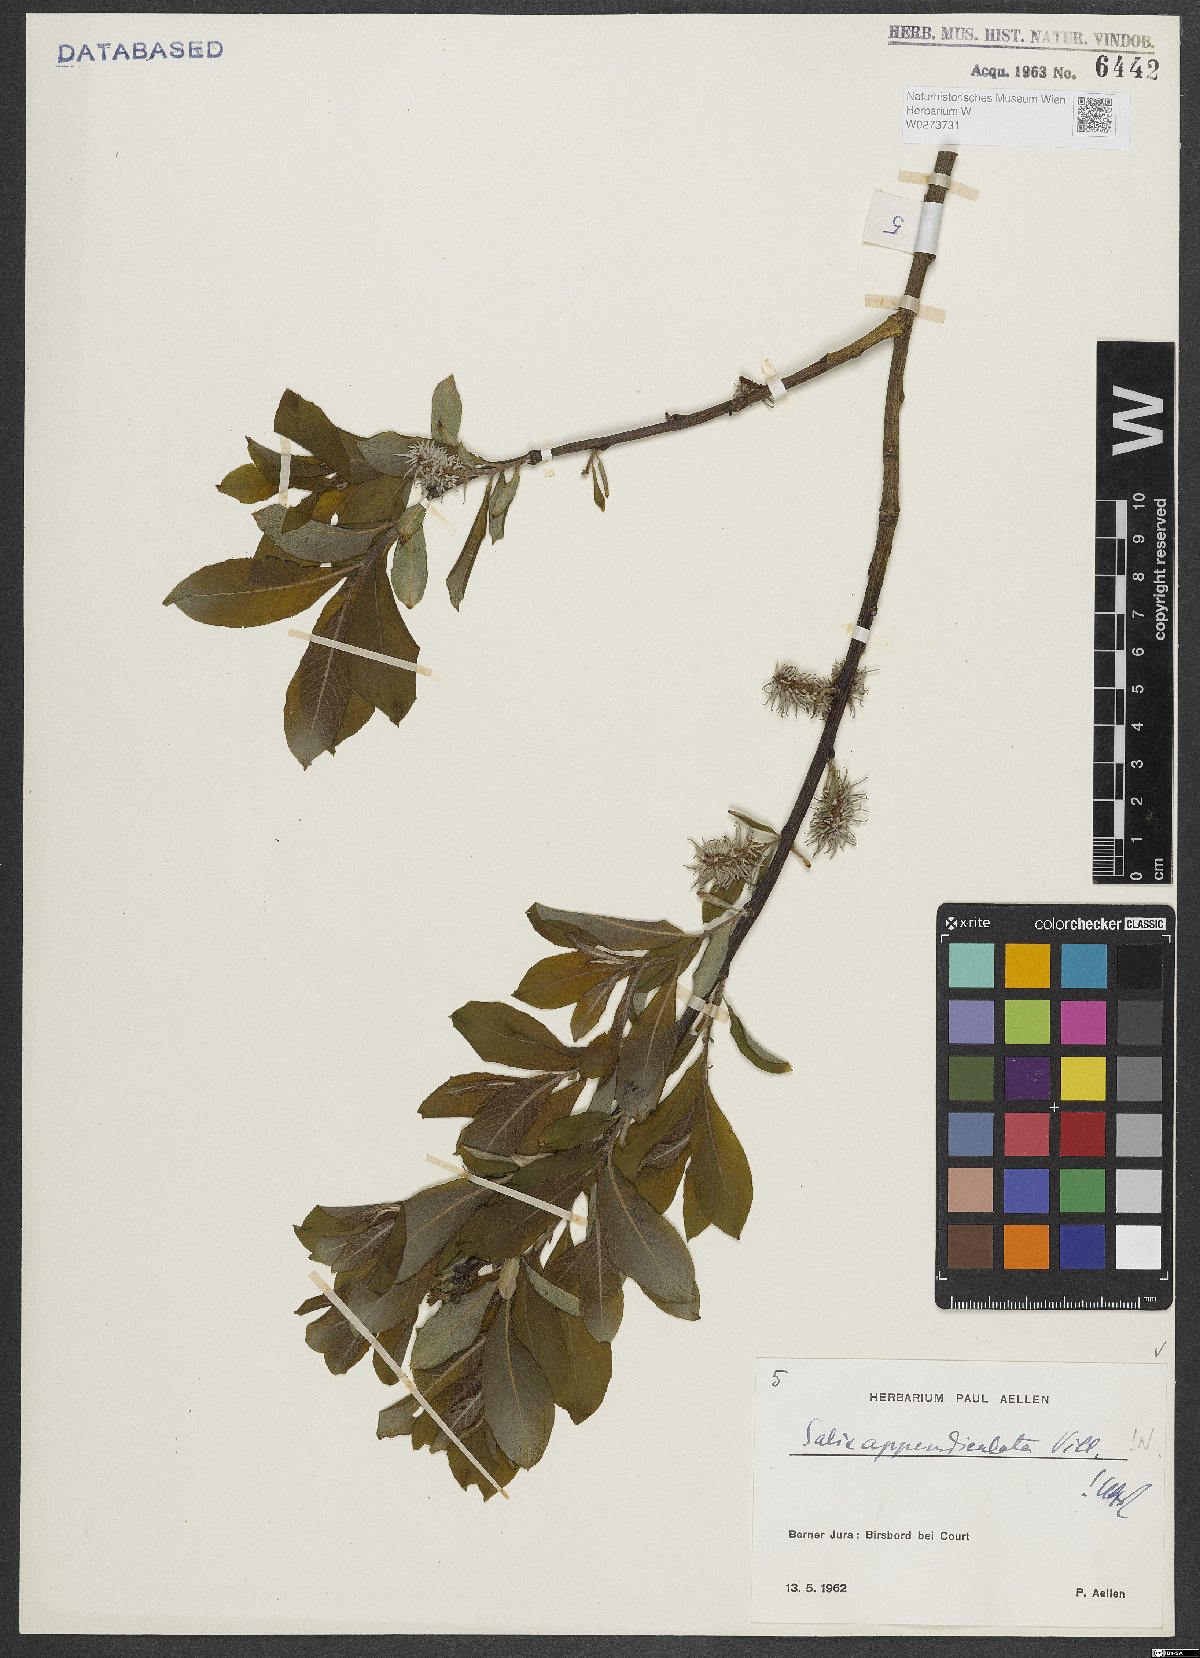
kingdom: Plantae
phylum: Tracheophyta
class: Magnoliopsida
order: Malpighiales
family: Salicaceae
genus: Salix
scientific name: Salix appendiculata
